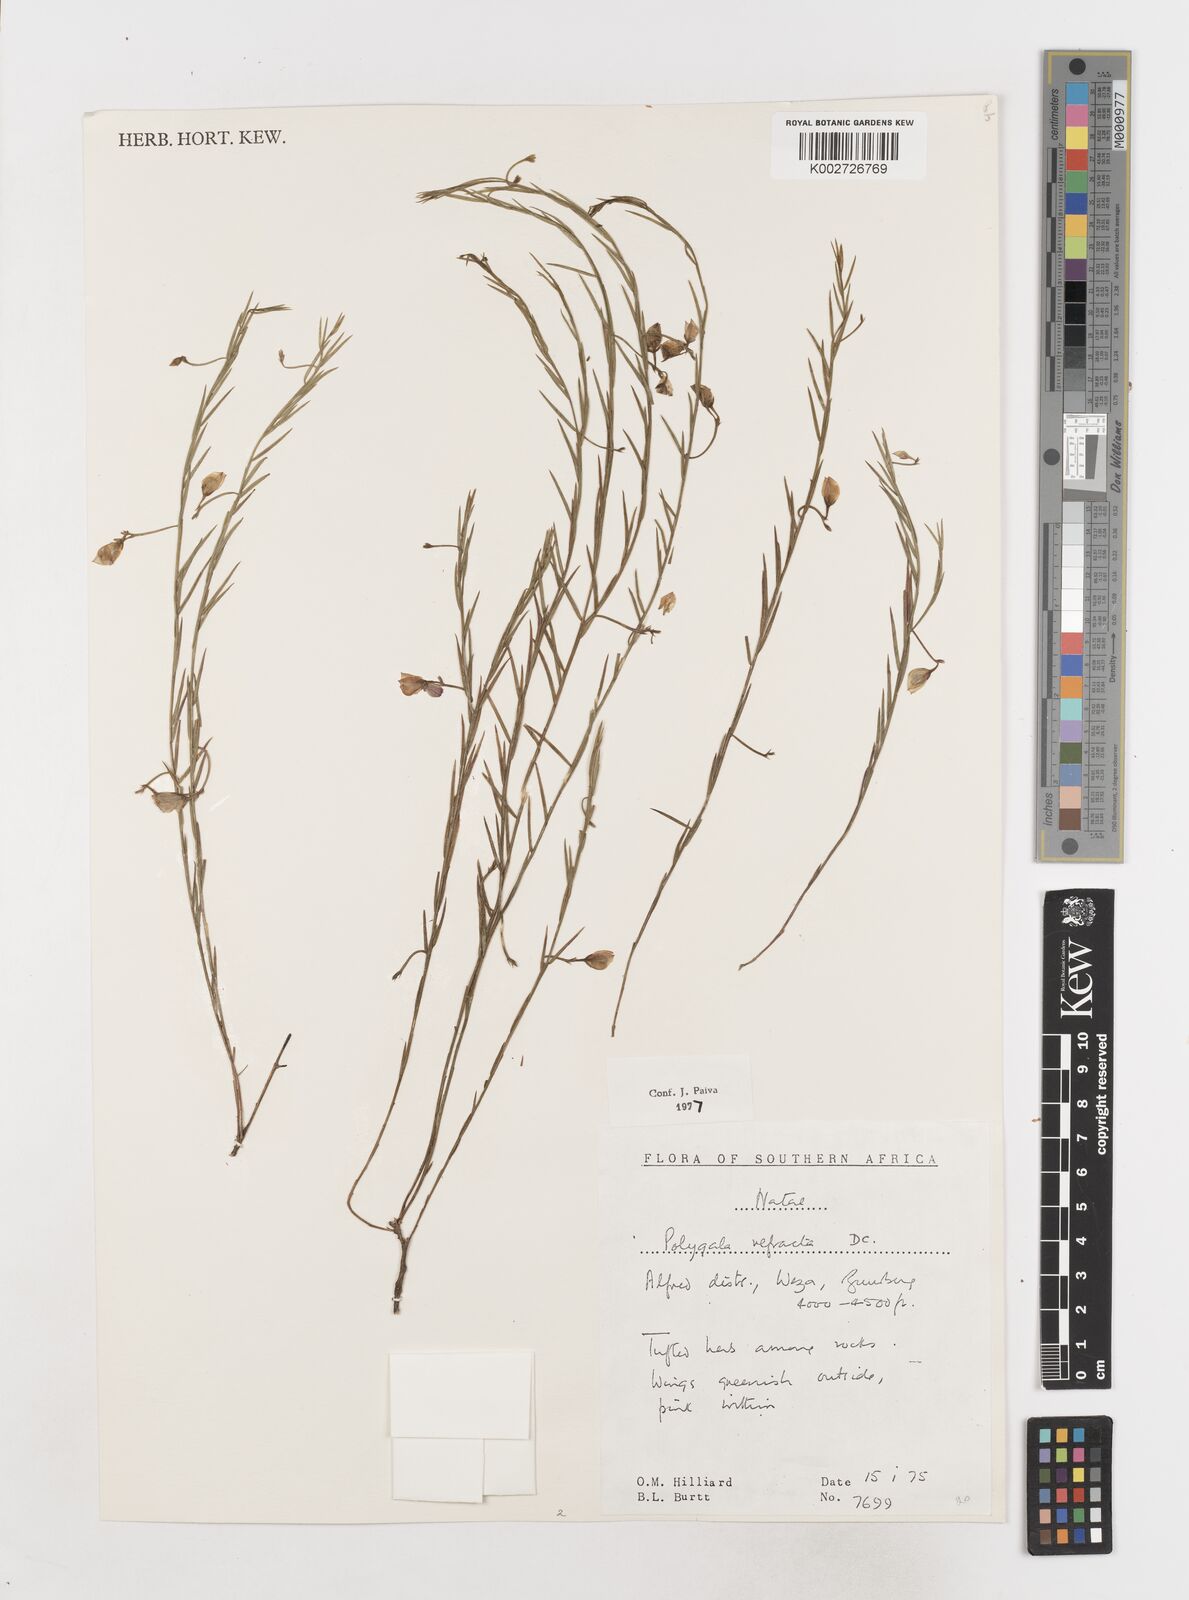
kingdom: Plantae
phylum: Tracheophyta
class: Magnoliopsida
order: Fabales
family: Polygalaceae
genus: Polygala
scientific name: Polygala refracta
